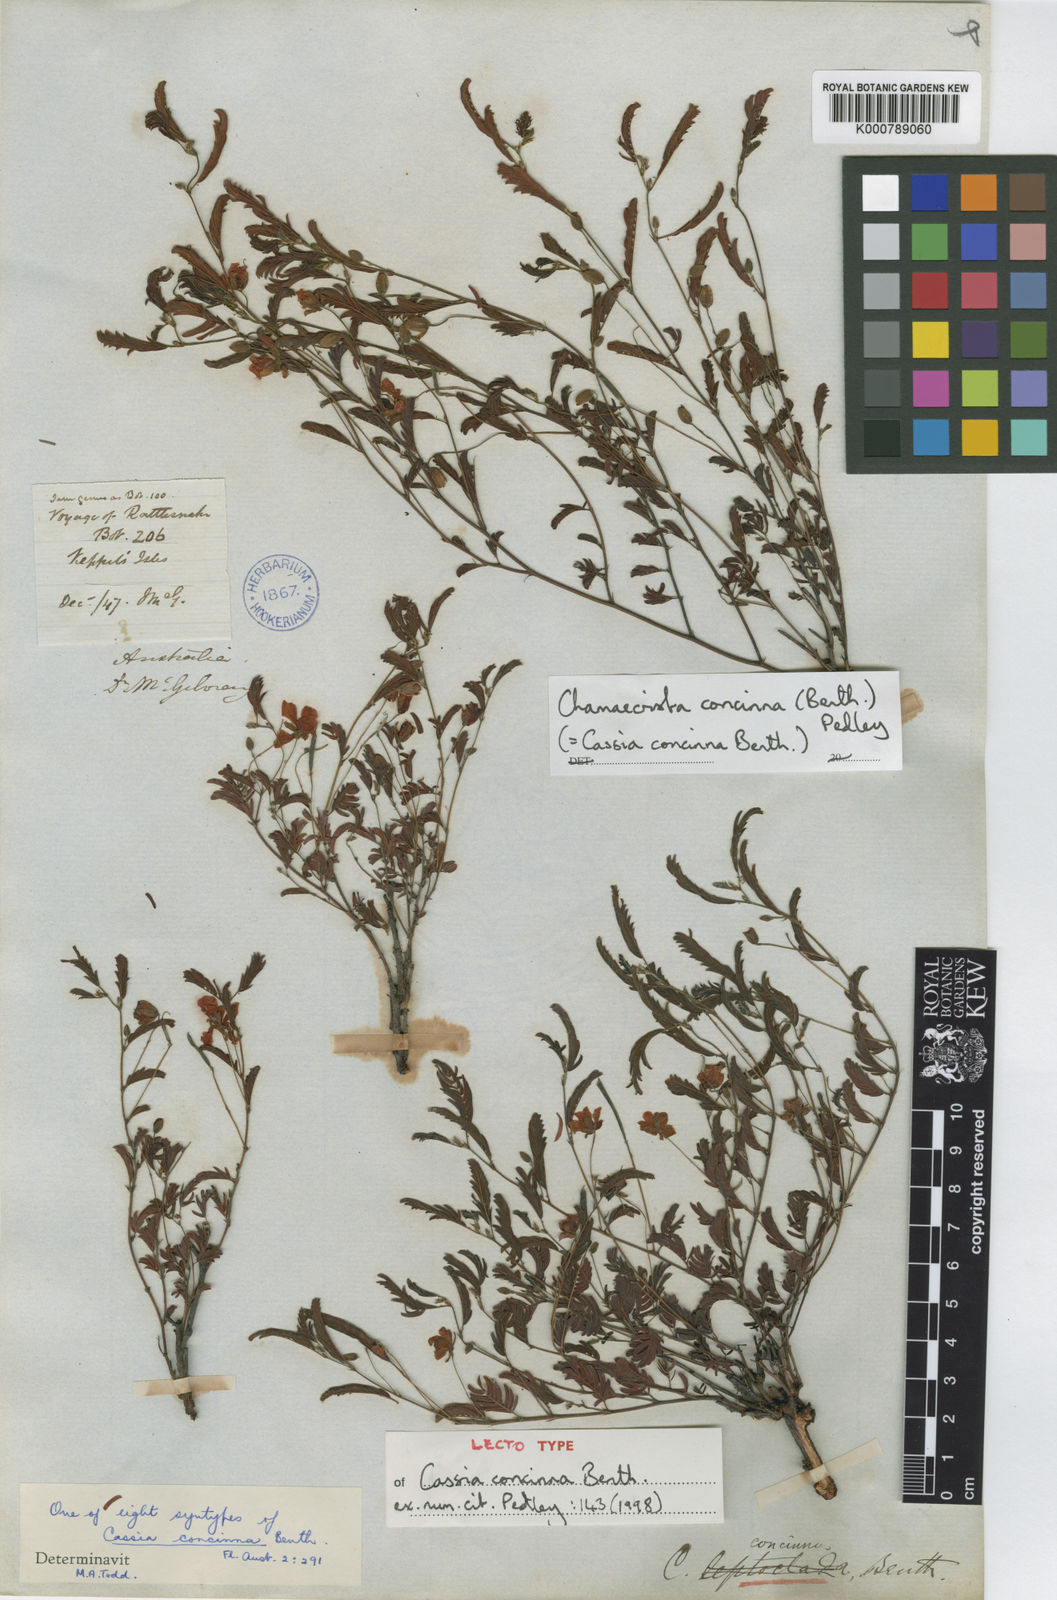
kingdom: Plantae
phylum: Tracheophyta
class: Magnoliopsida
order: Fabales
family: Fabaceae
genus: Chamaecrista
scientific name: Chamaecrista concinna
